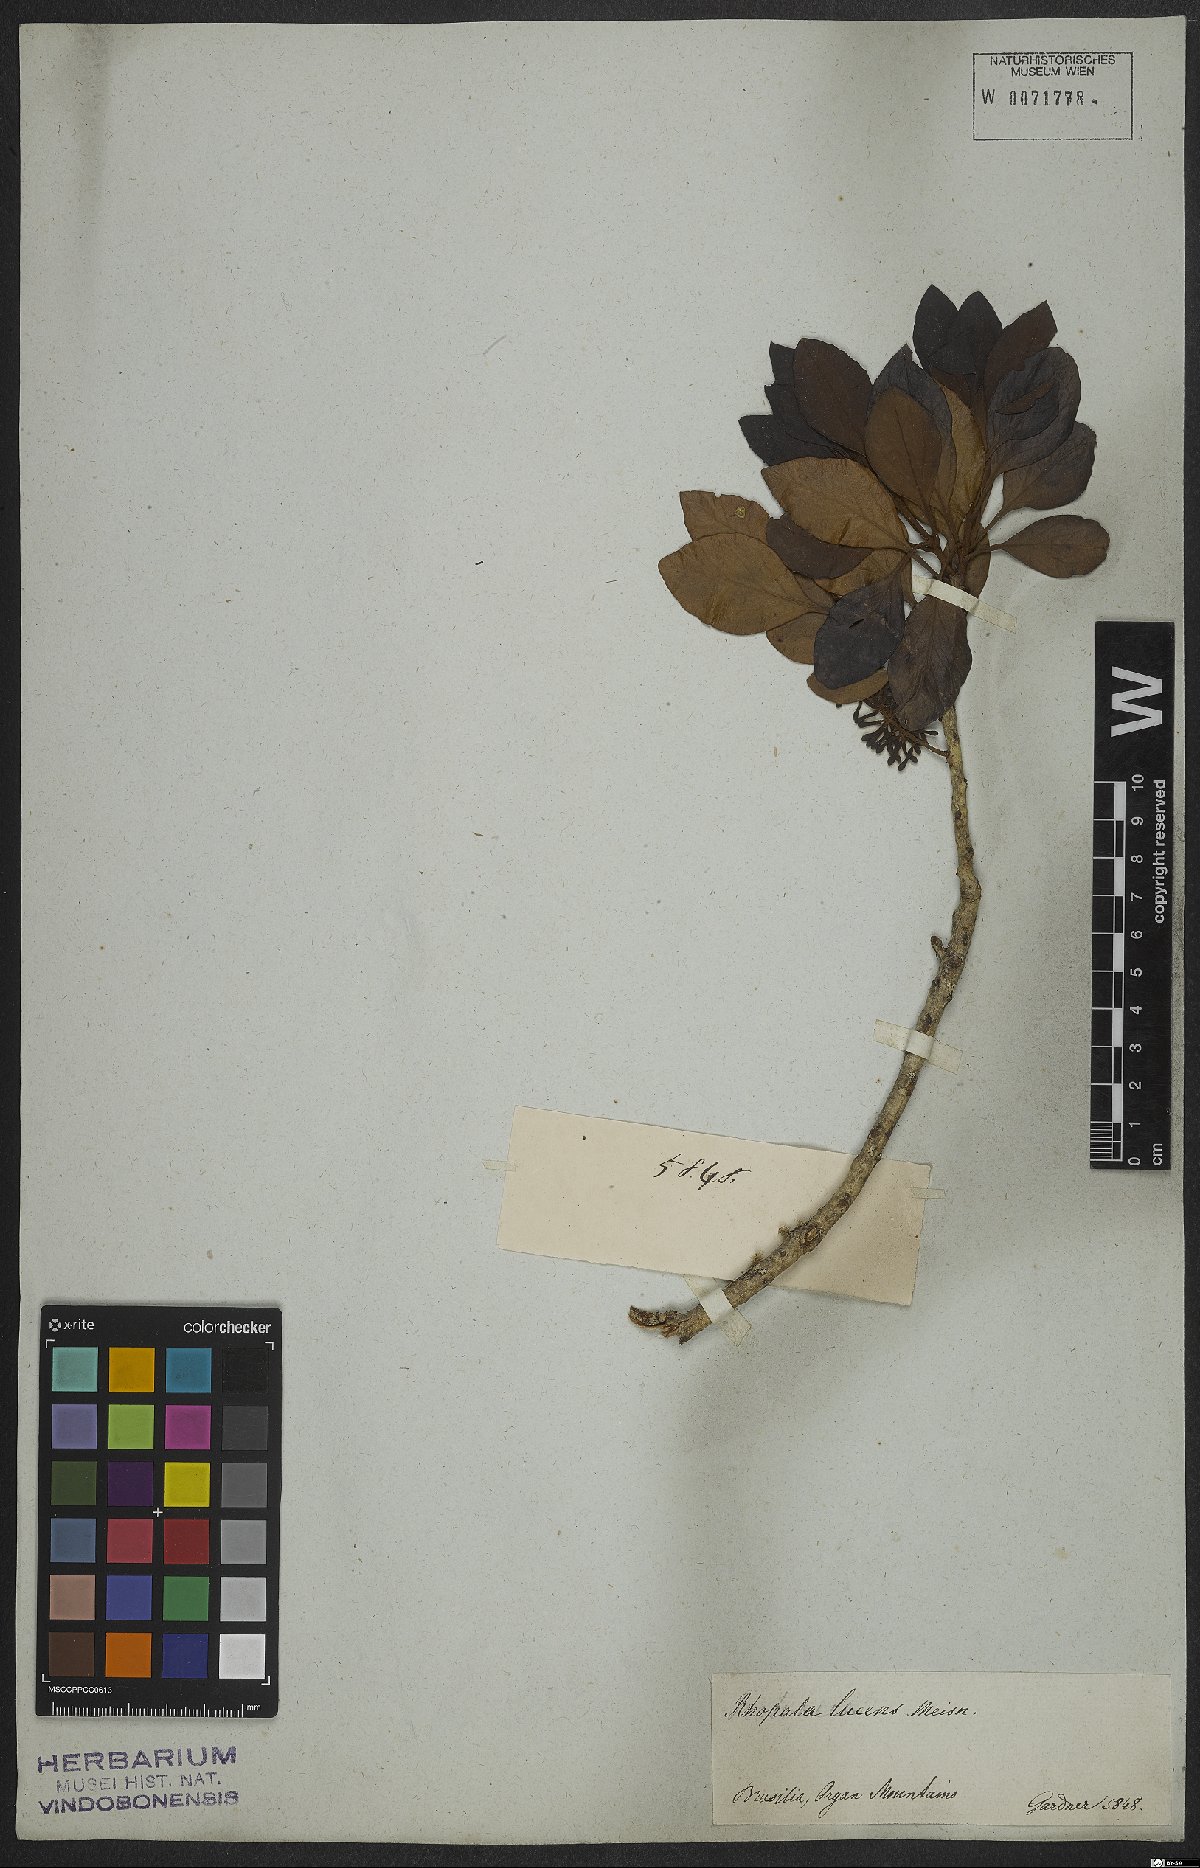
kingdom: Plantae
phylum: Tracheophyta
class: Magnoliopsida
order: Proteales
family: Proteaceae
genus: Roupala
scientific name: Roupala lucens
